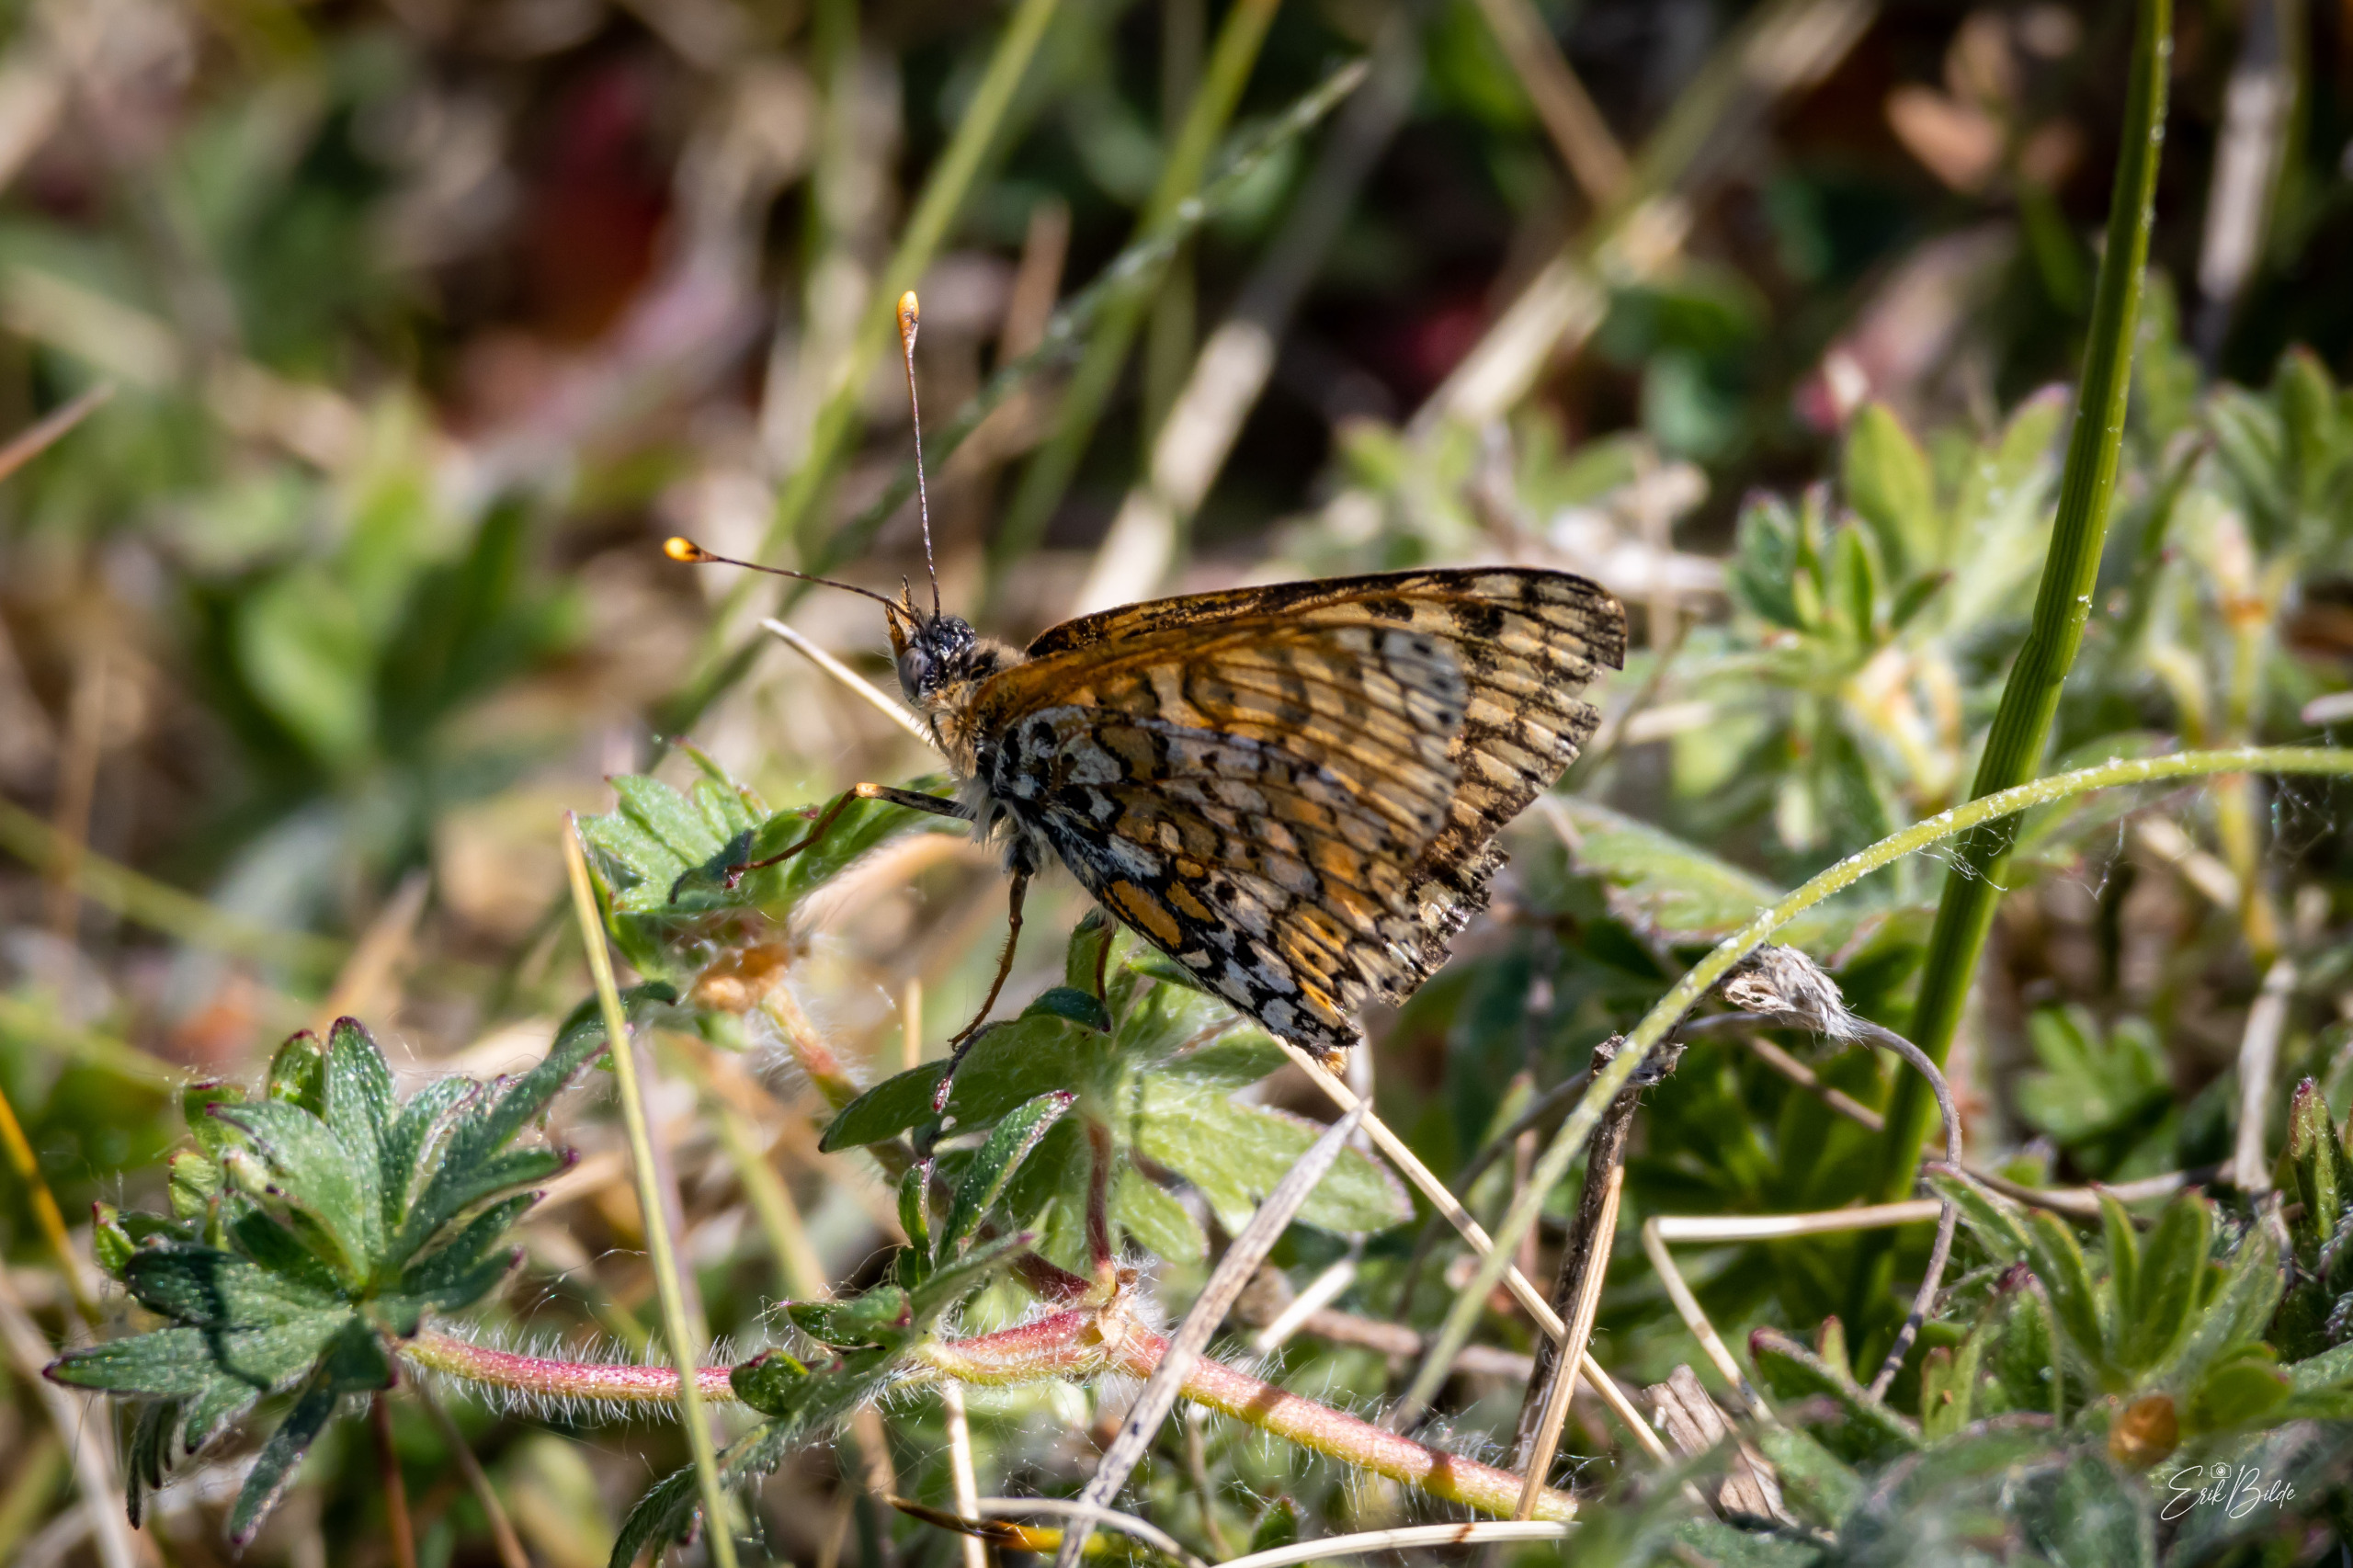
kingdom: Animalia
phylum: Arthropoda
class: Insecta
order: Lepidoptera
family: Nymphalidae
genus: Melitaea
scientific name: Melitaea cinxia
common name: Okkergul pletvinge
